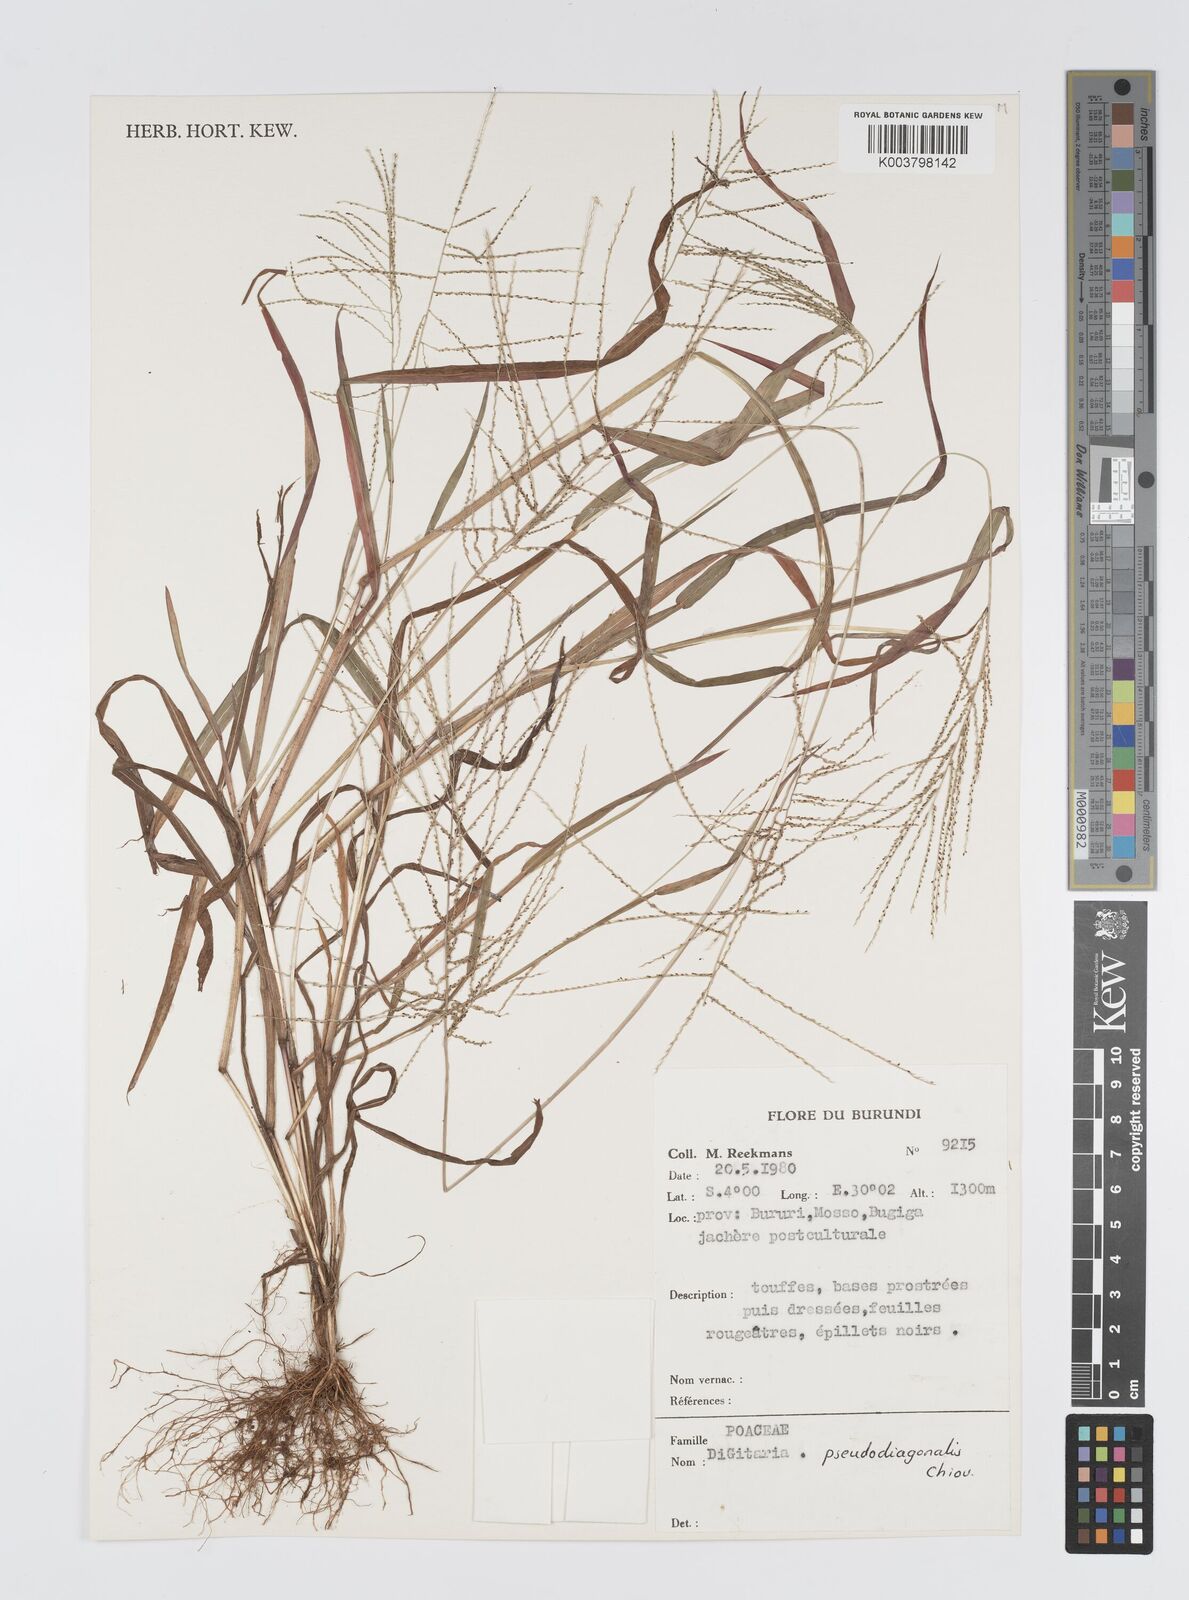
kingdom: Plantae
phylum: Tracheophyta
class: Liliopsida
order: Poales
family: Poaceae
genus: Digitaria
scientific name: Digitaria pseudodiagonalis
